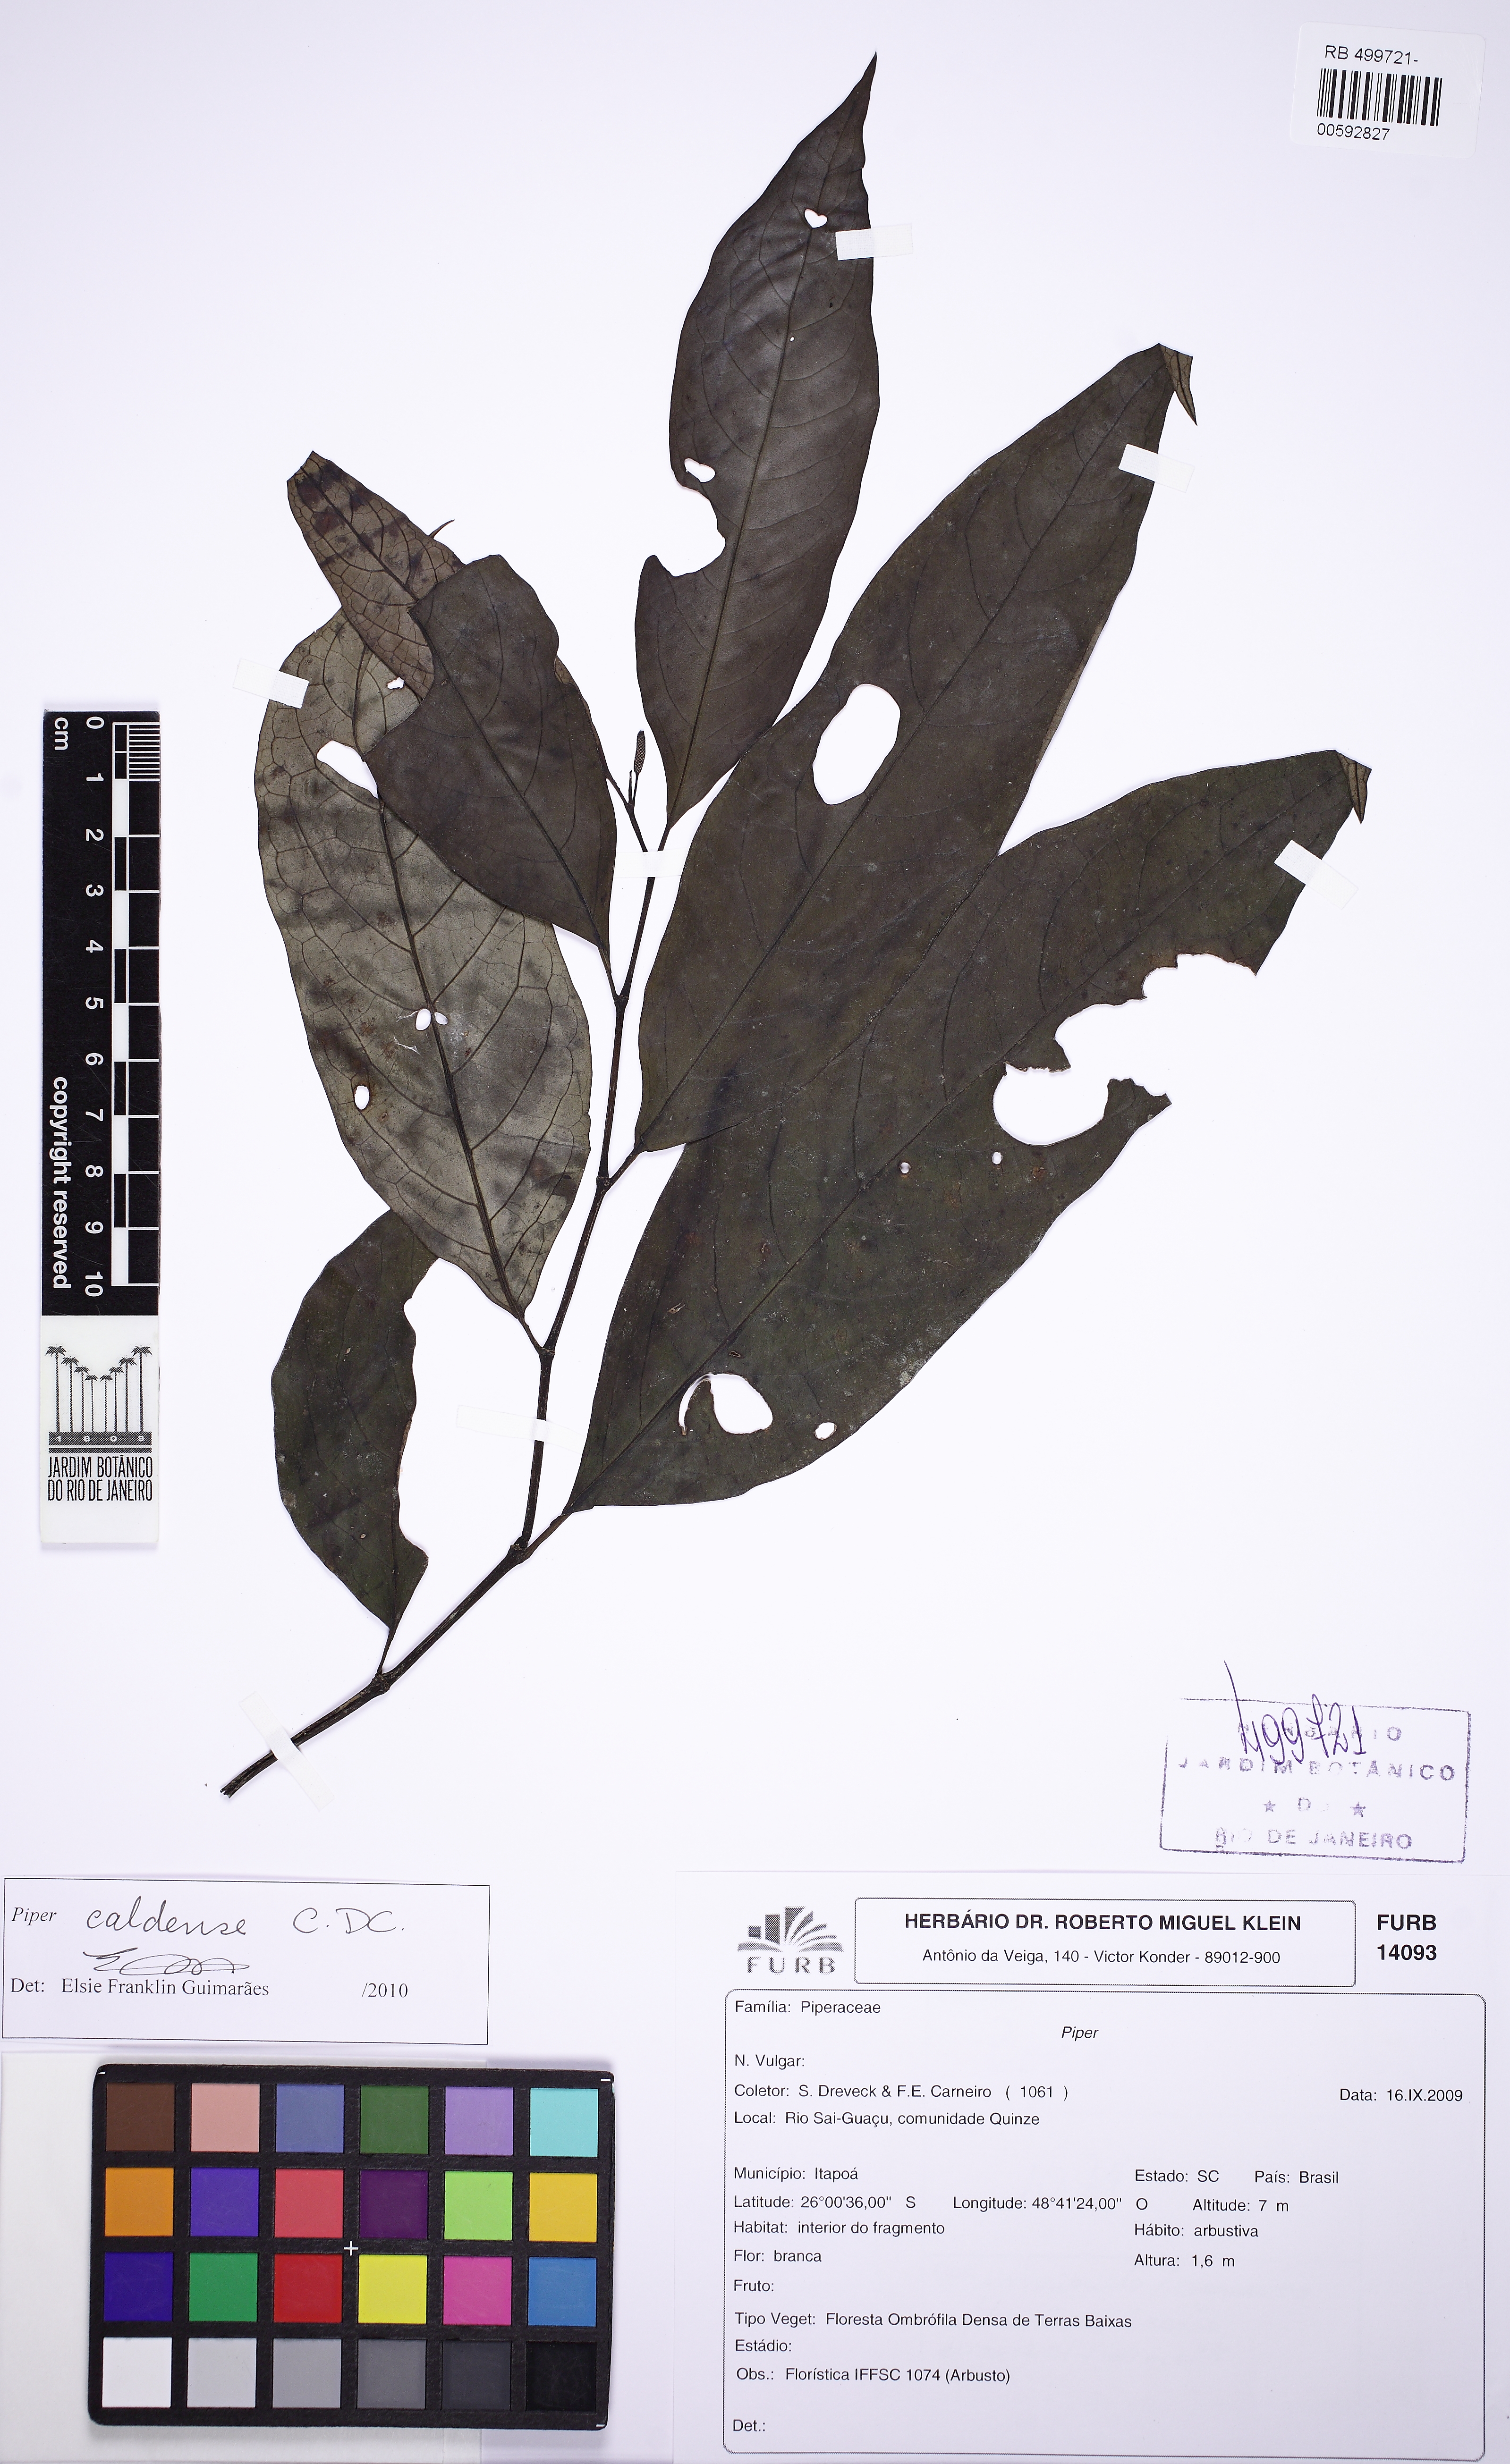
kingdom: Plantae
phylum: Tracheophyta
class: Magnoliopsida
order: Piperales
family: Piperaceae
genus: Piper
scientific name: Piper caldense
